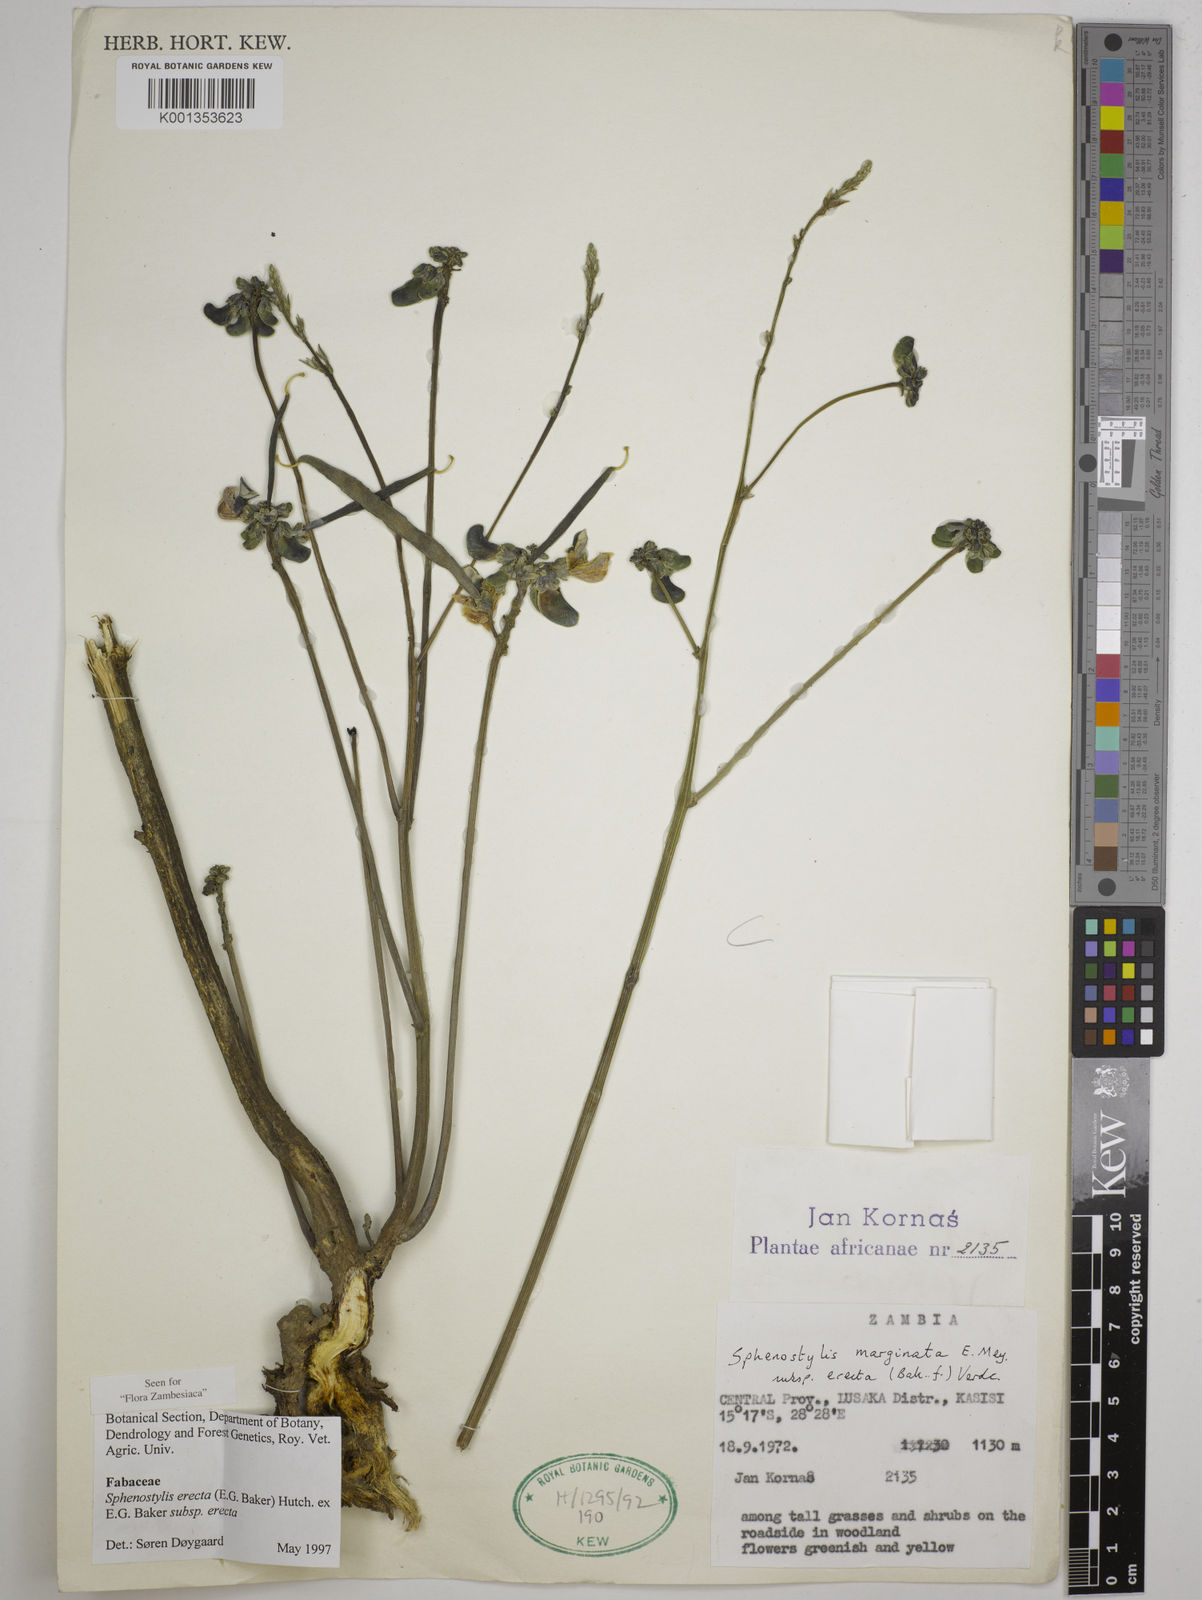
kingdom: Plantae
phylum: Tracheophyta
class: Magnoliopsida
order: Fabales
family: Fabaceae
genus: Sphenostylis
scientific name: Sphenostylis erecta
